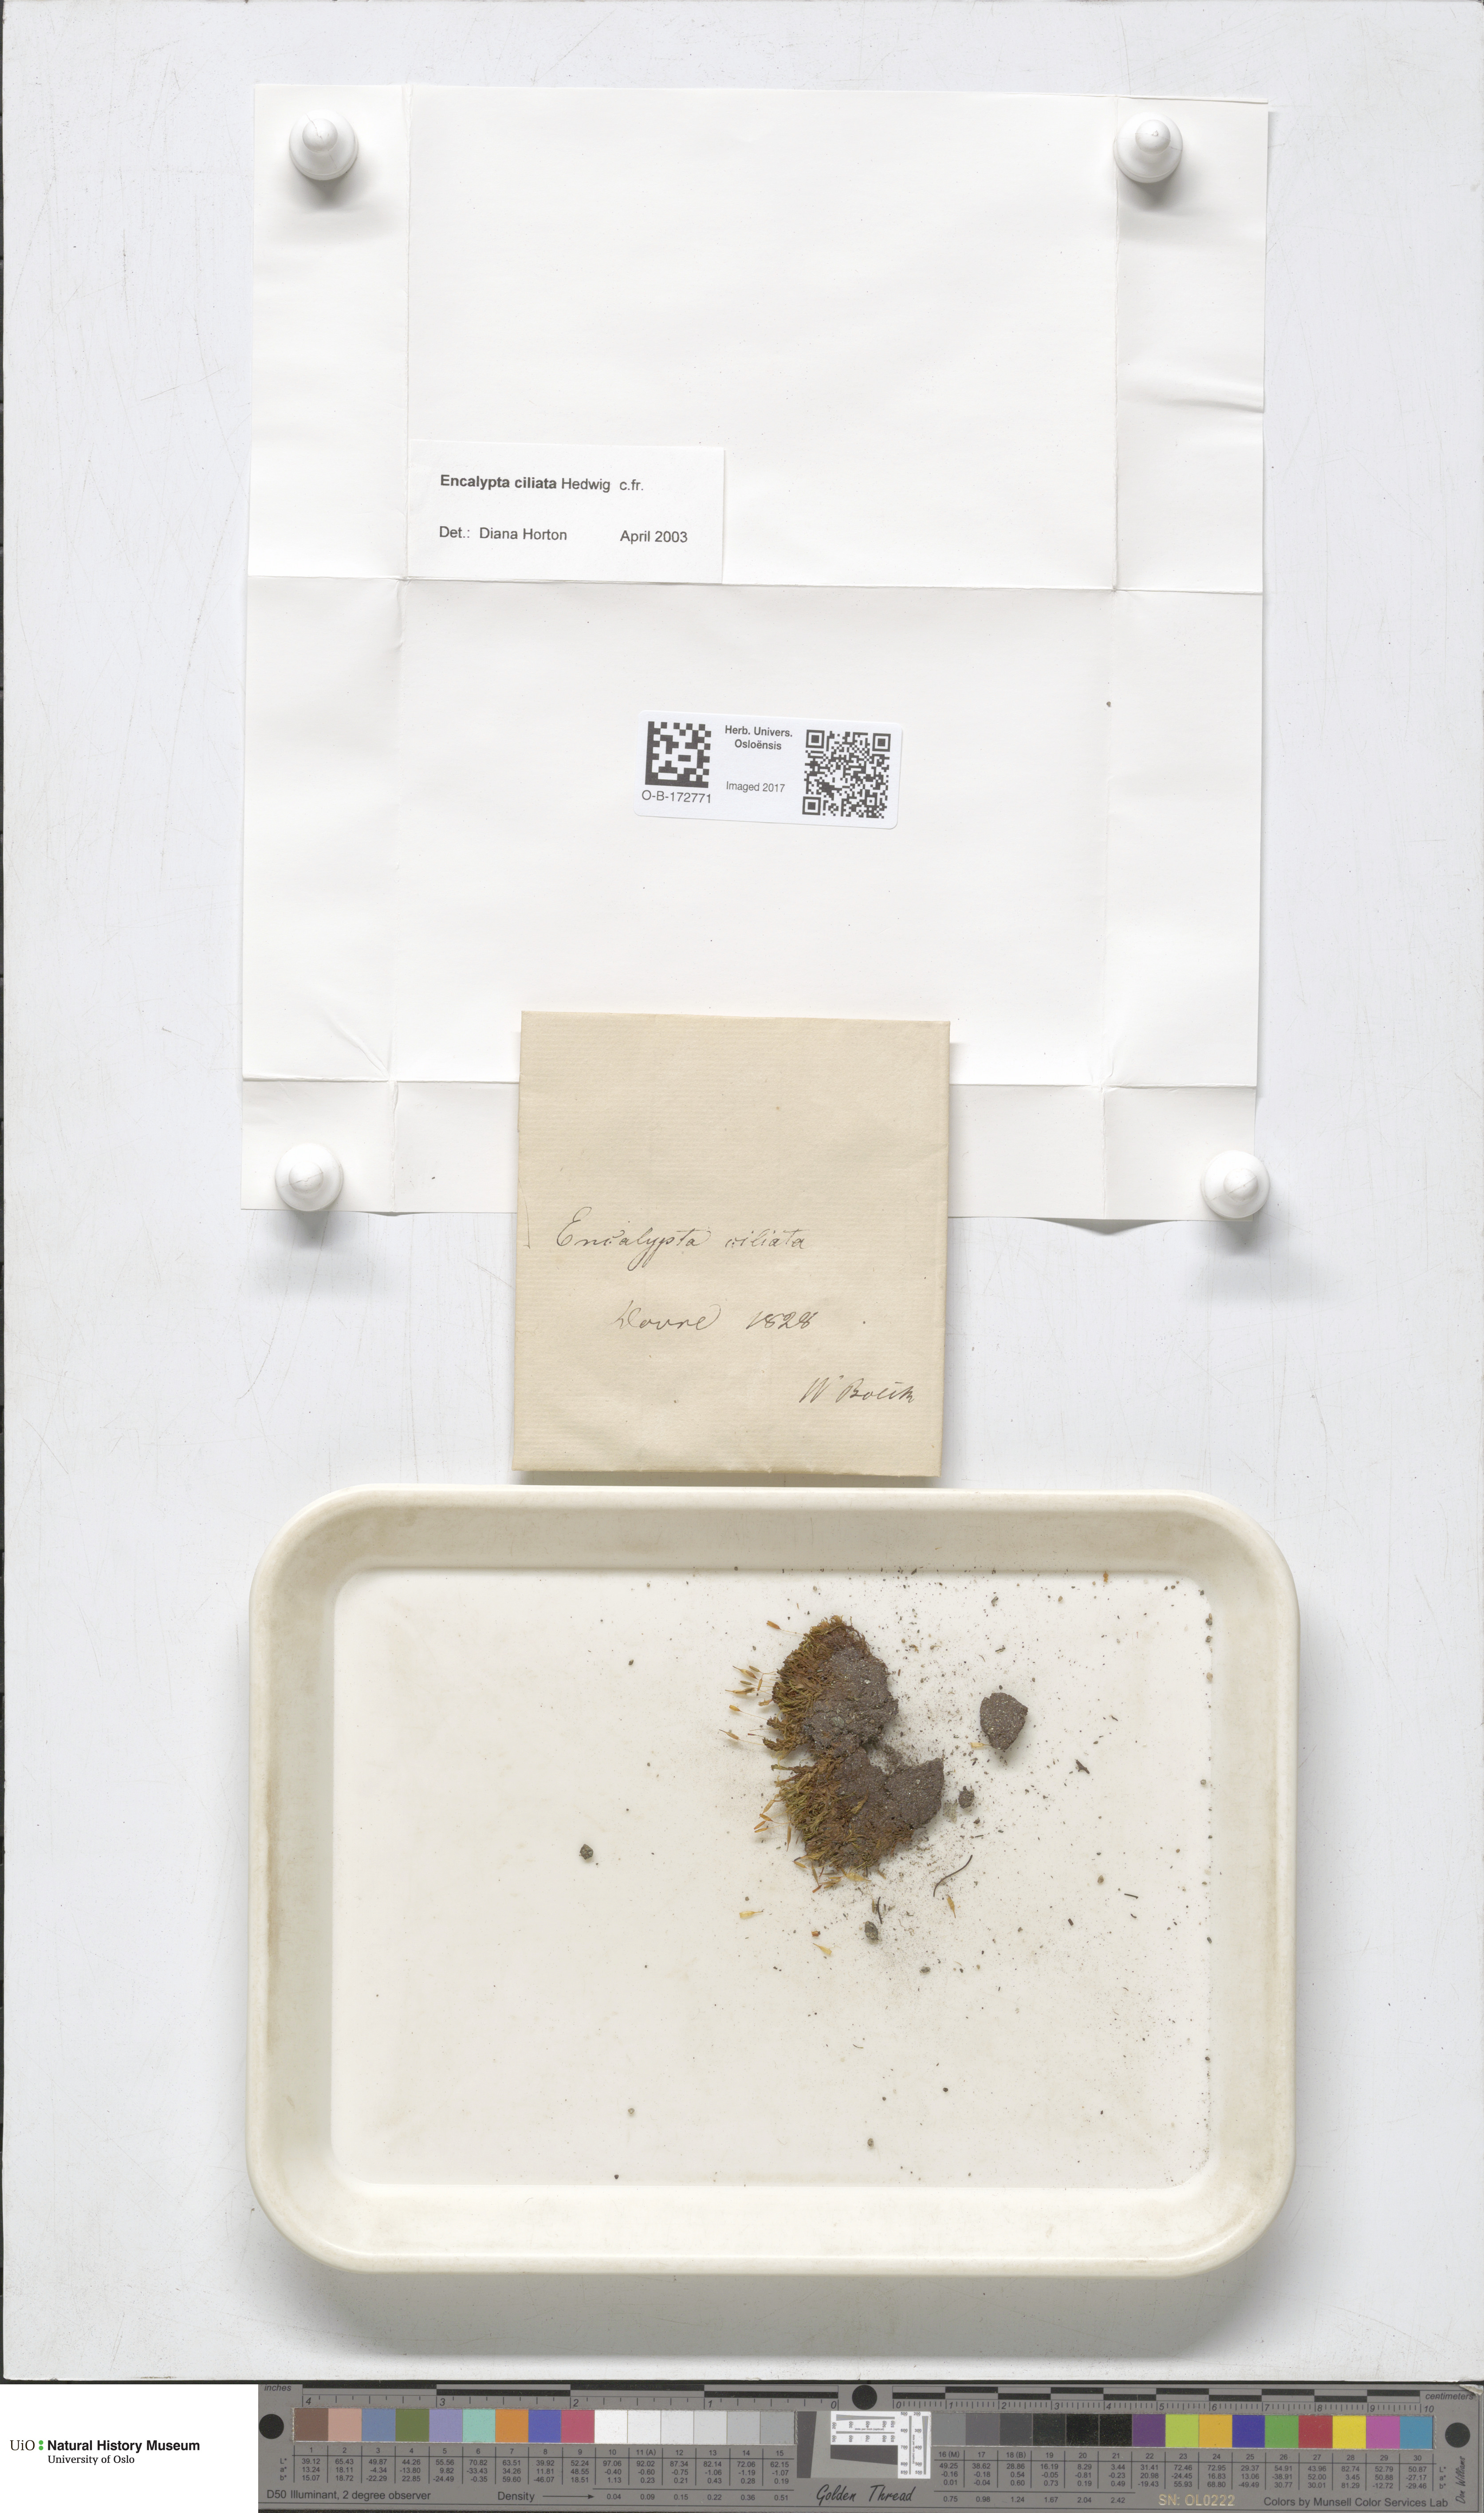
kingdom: Plantae
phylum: Bryophyta
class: Bryopsida
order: Encalyptales
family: Encalyptaceae
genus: Encalypta
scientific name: Encalypta ciliata
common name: Fringed extinguisher-moss
